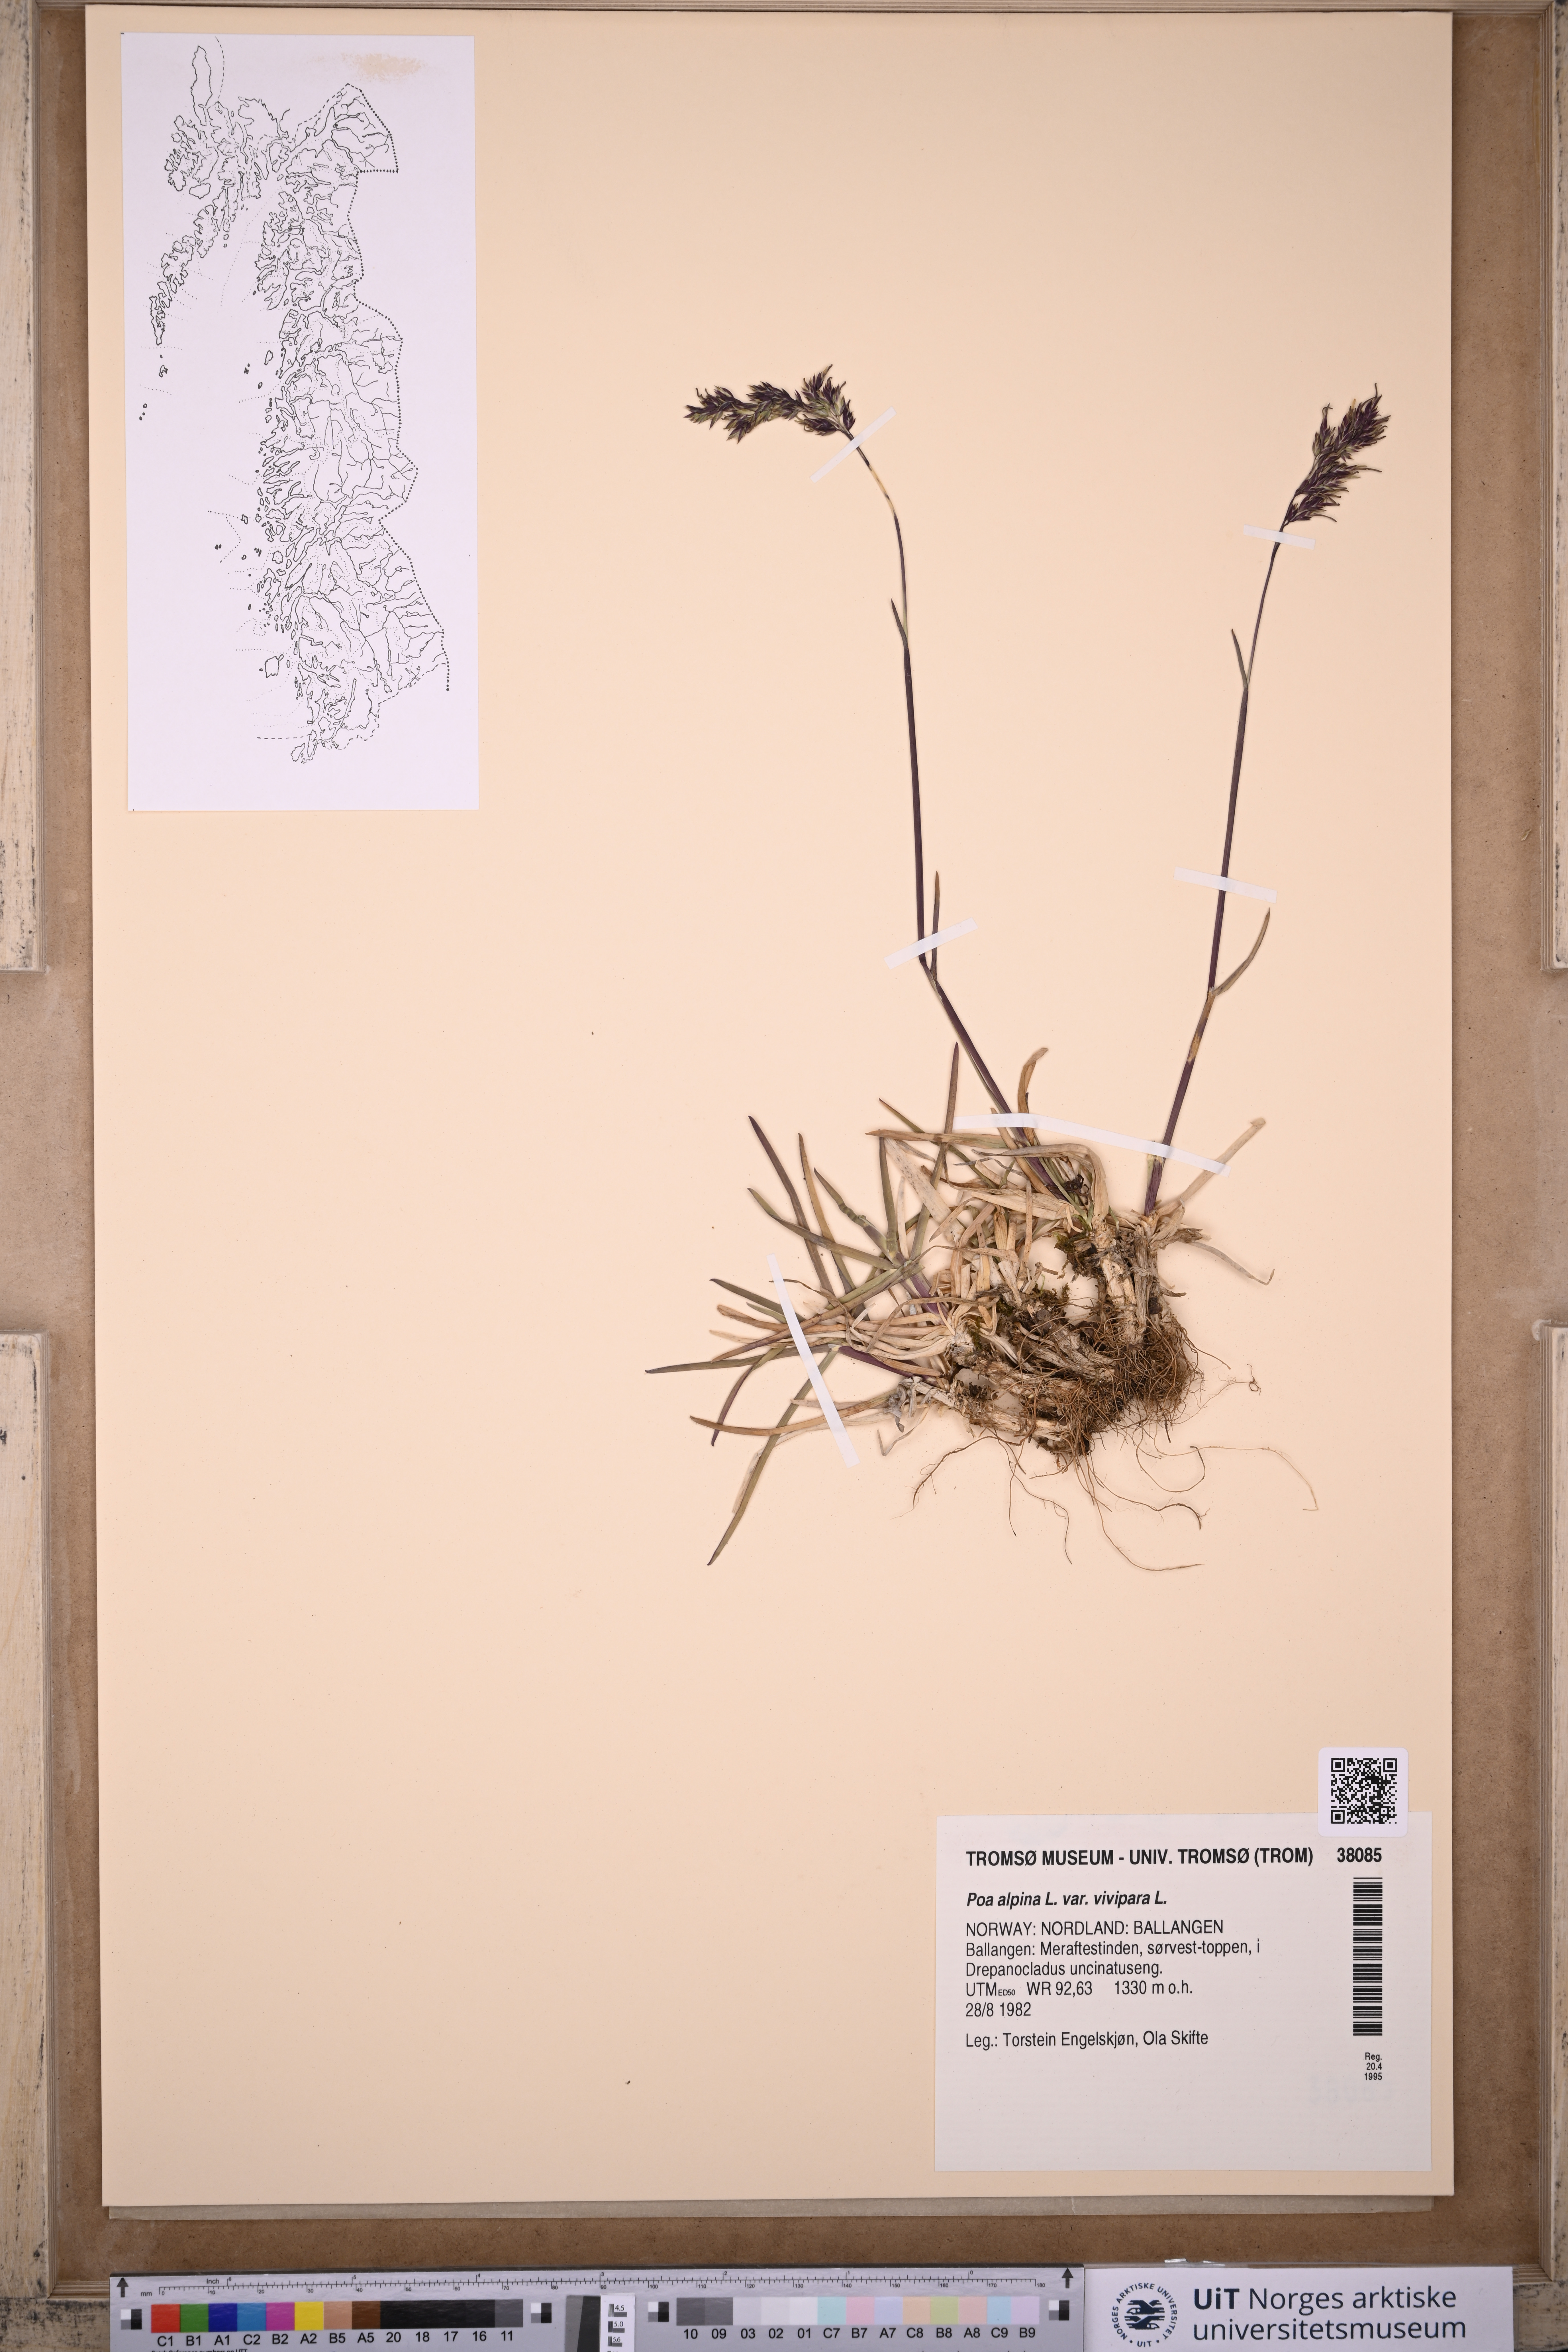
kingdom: Plantae
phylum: Tracheophyta
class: Liliopsida
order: Poales
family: Poaceae
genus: Poa
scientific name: Poa alpina
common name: Alpine bluegrass
